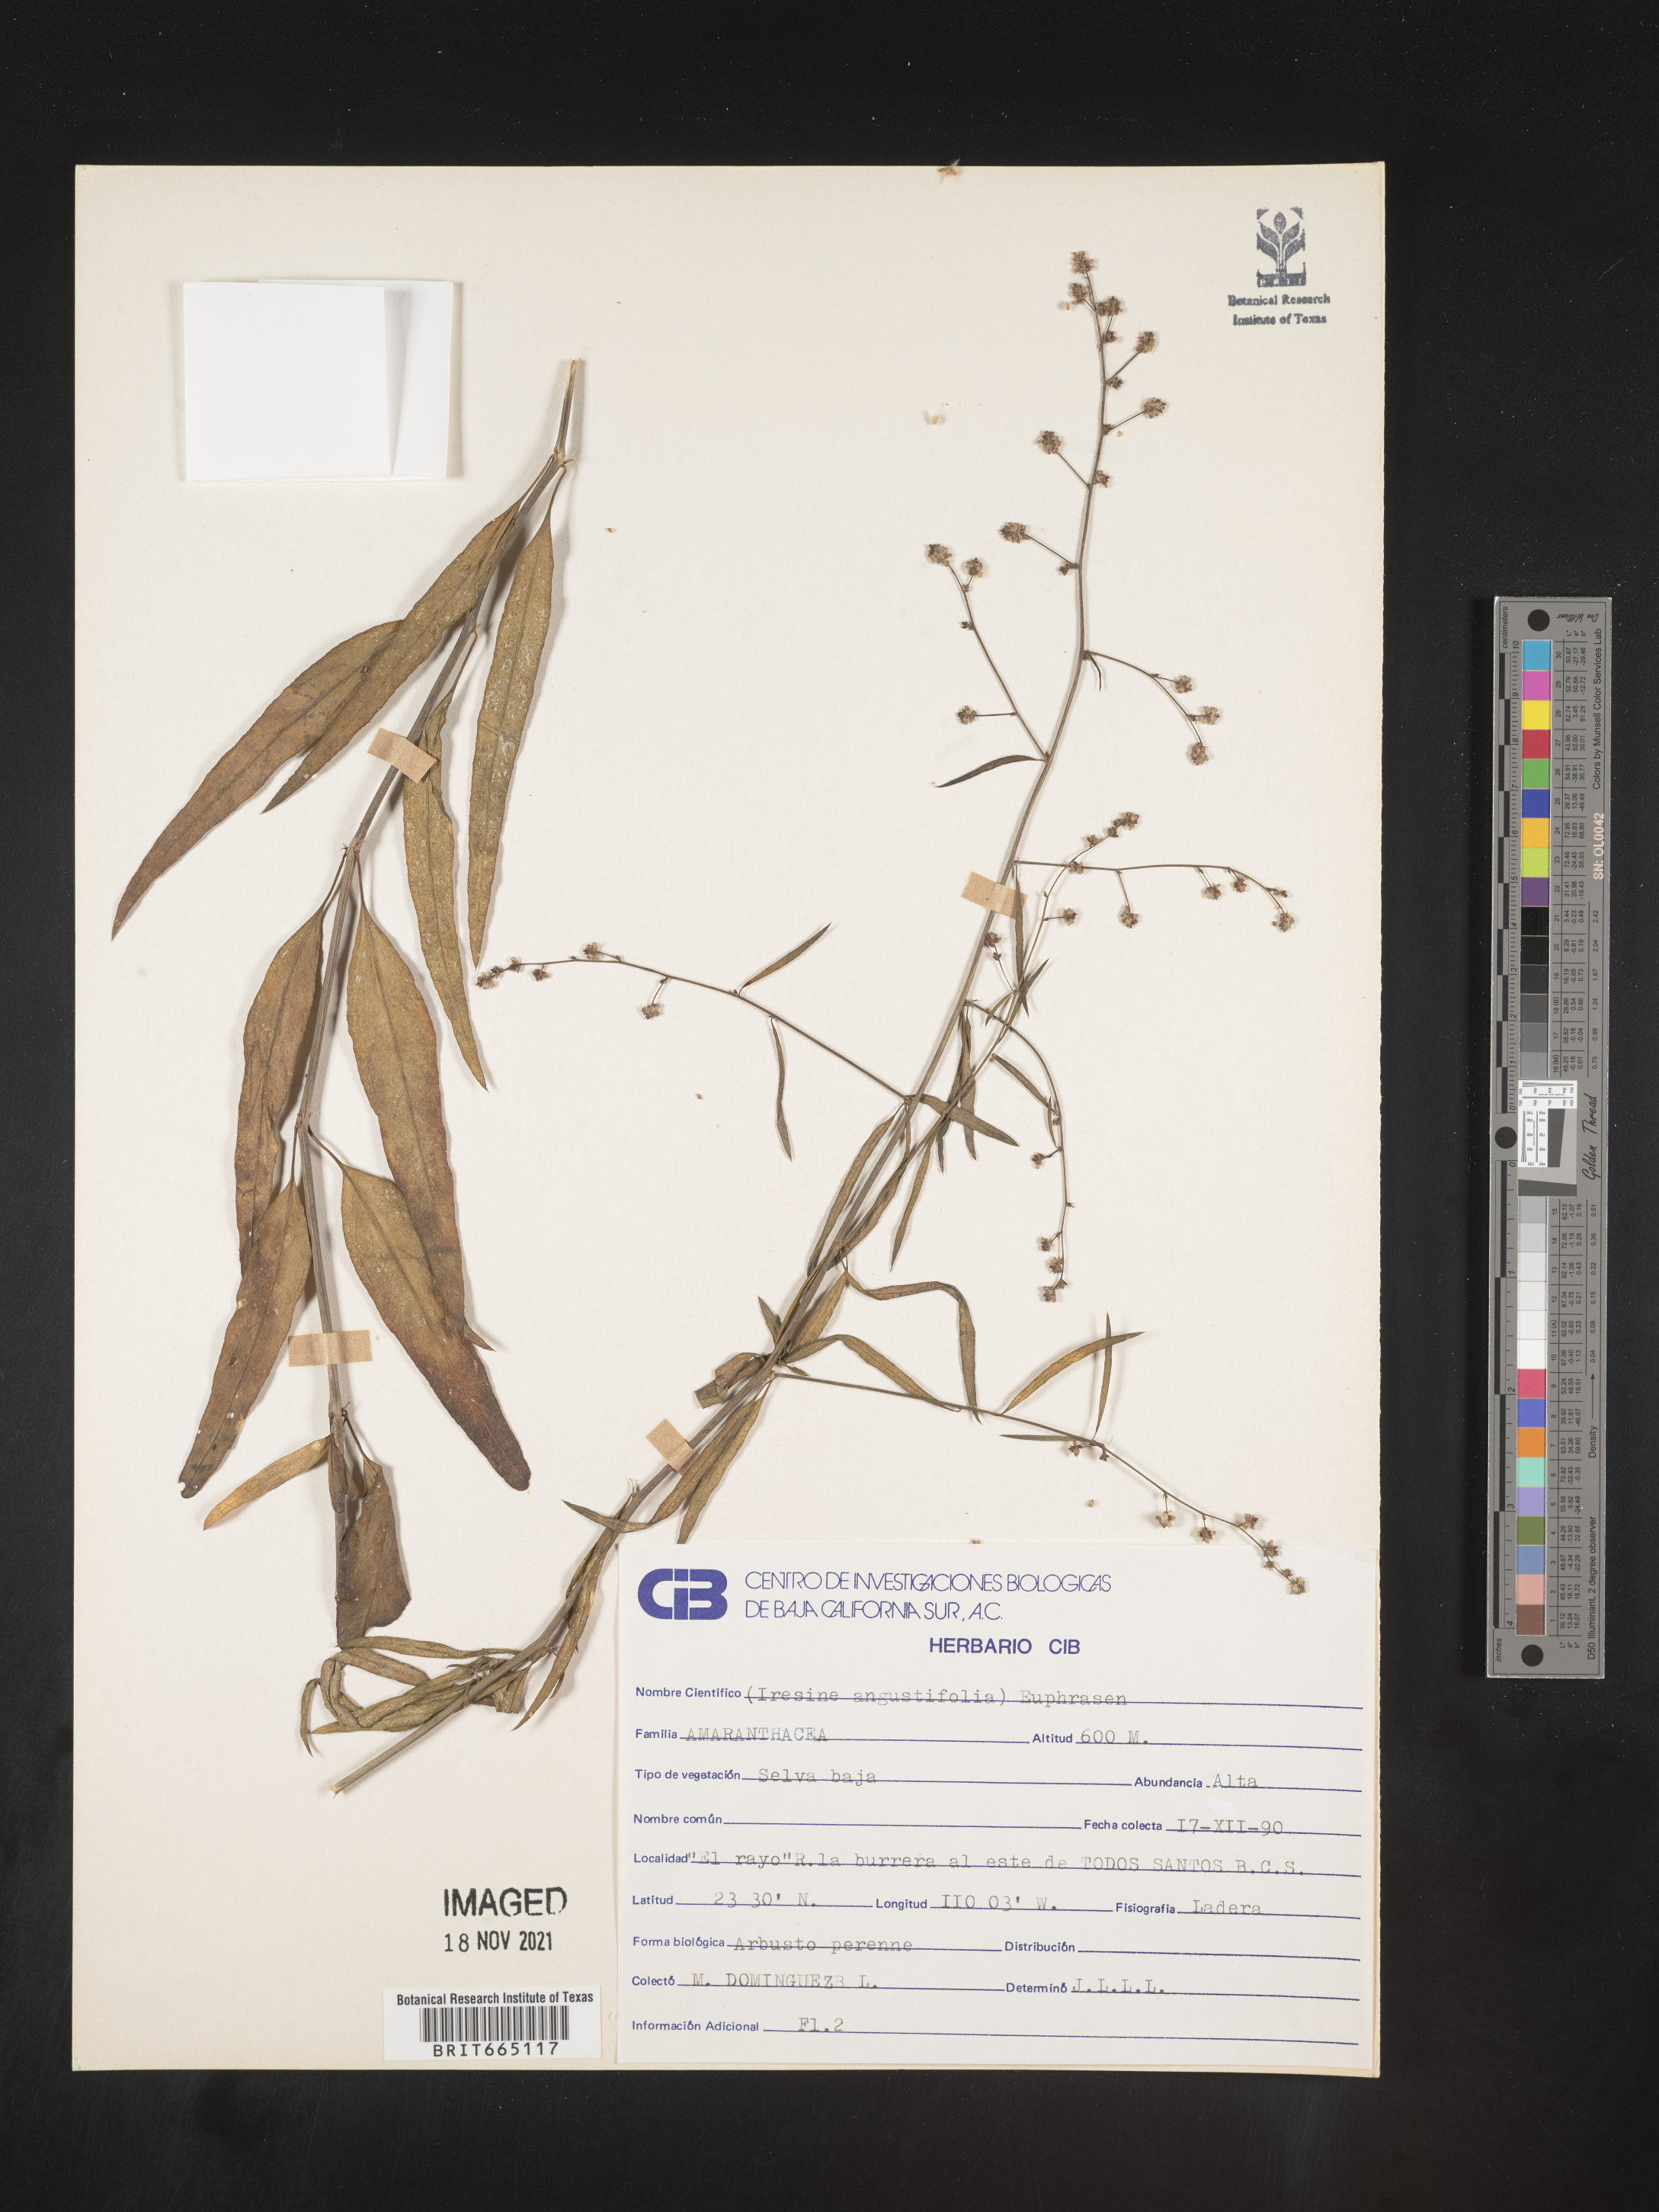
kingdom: Plantae
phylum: Tracheophyta
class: Magnoliopsida
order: Caryophyllales
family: Amaranthaceae
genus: Iresine
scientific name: Iresine
